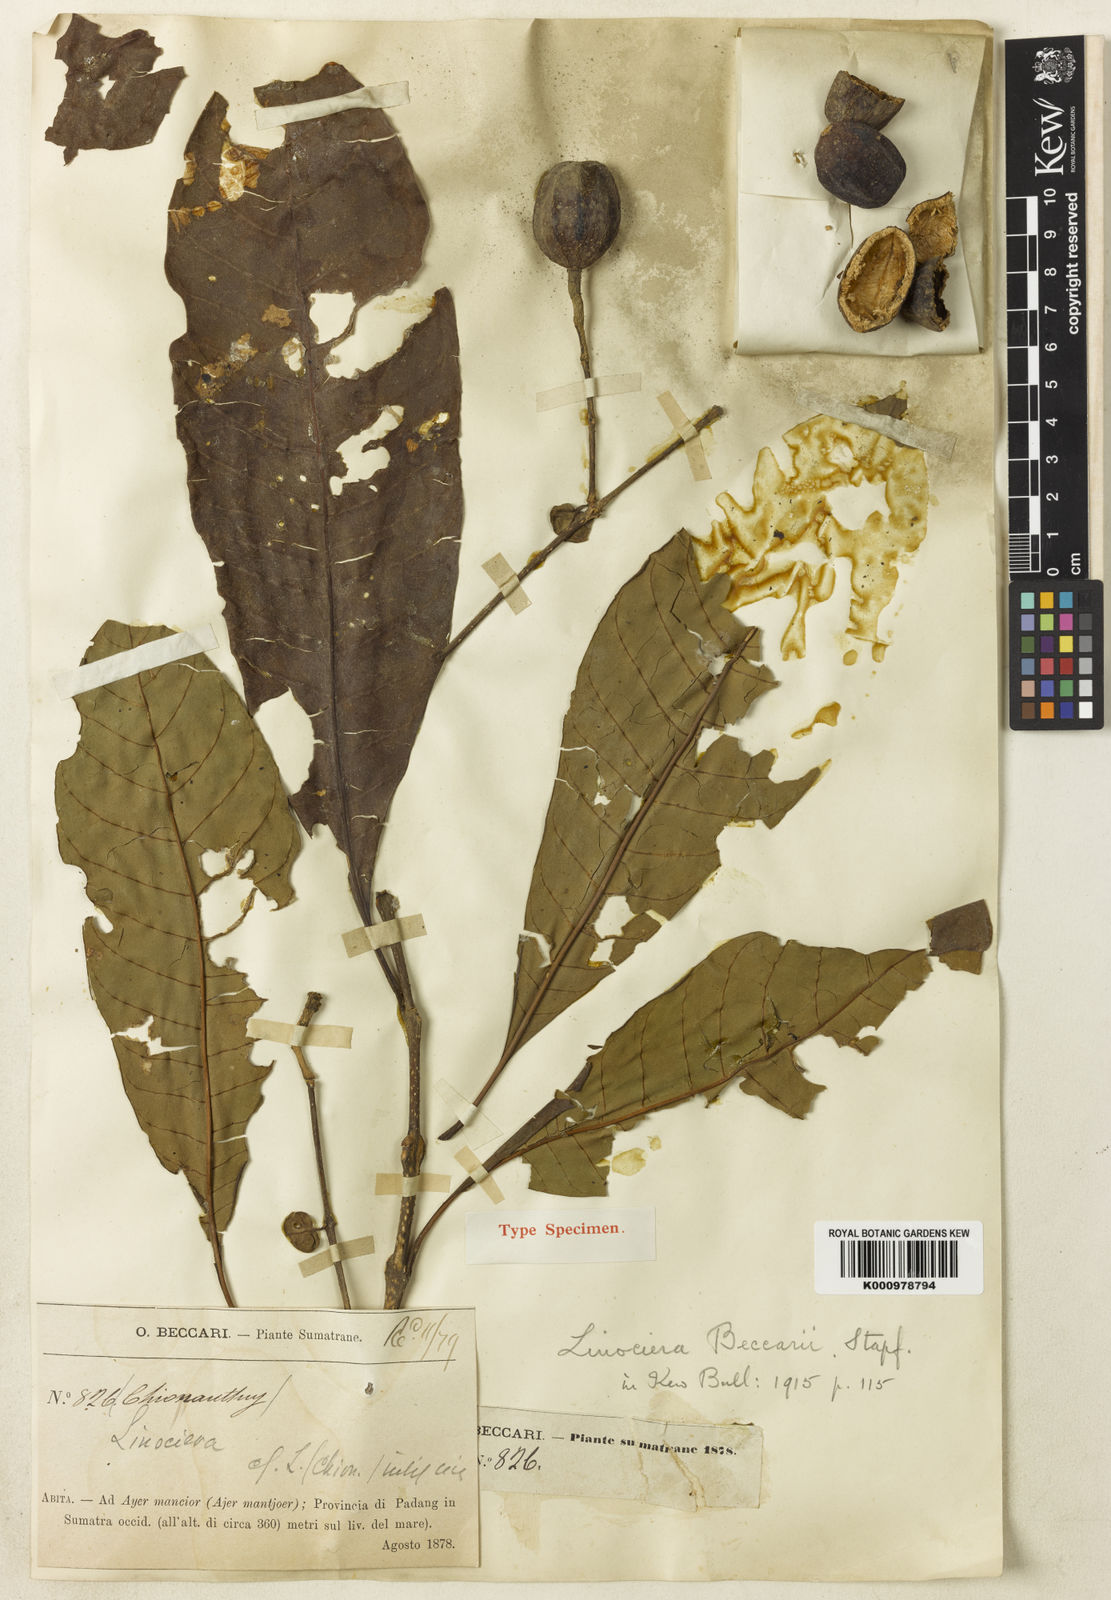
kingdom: Plantae
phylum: Tracheophyta
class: Magnoliopsida
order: Lamiales
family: Oleaceae
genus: Chionanthus
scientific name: Chionanthus beccarii
